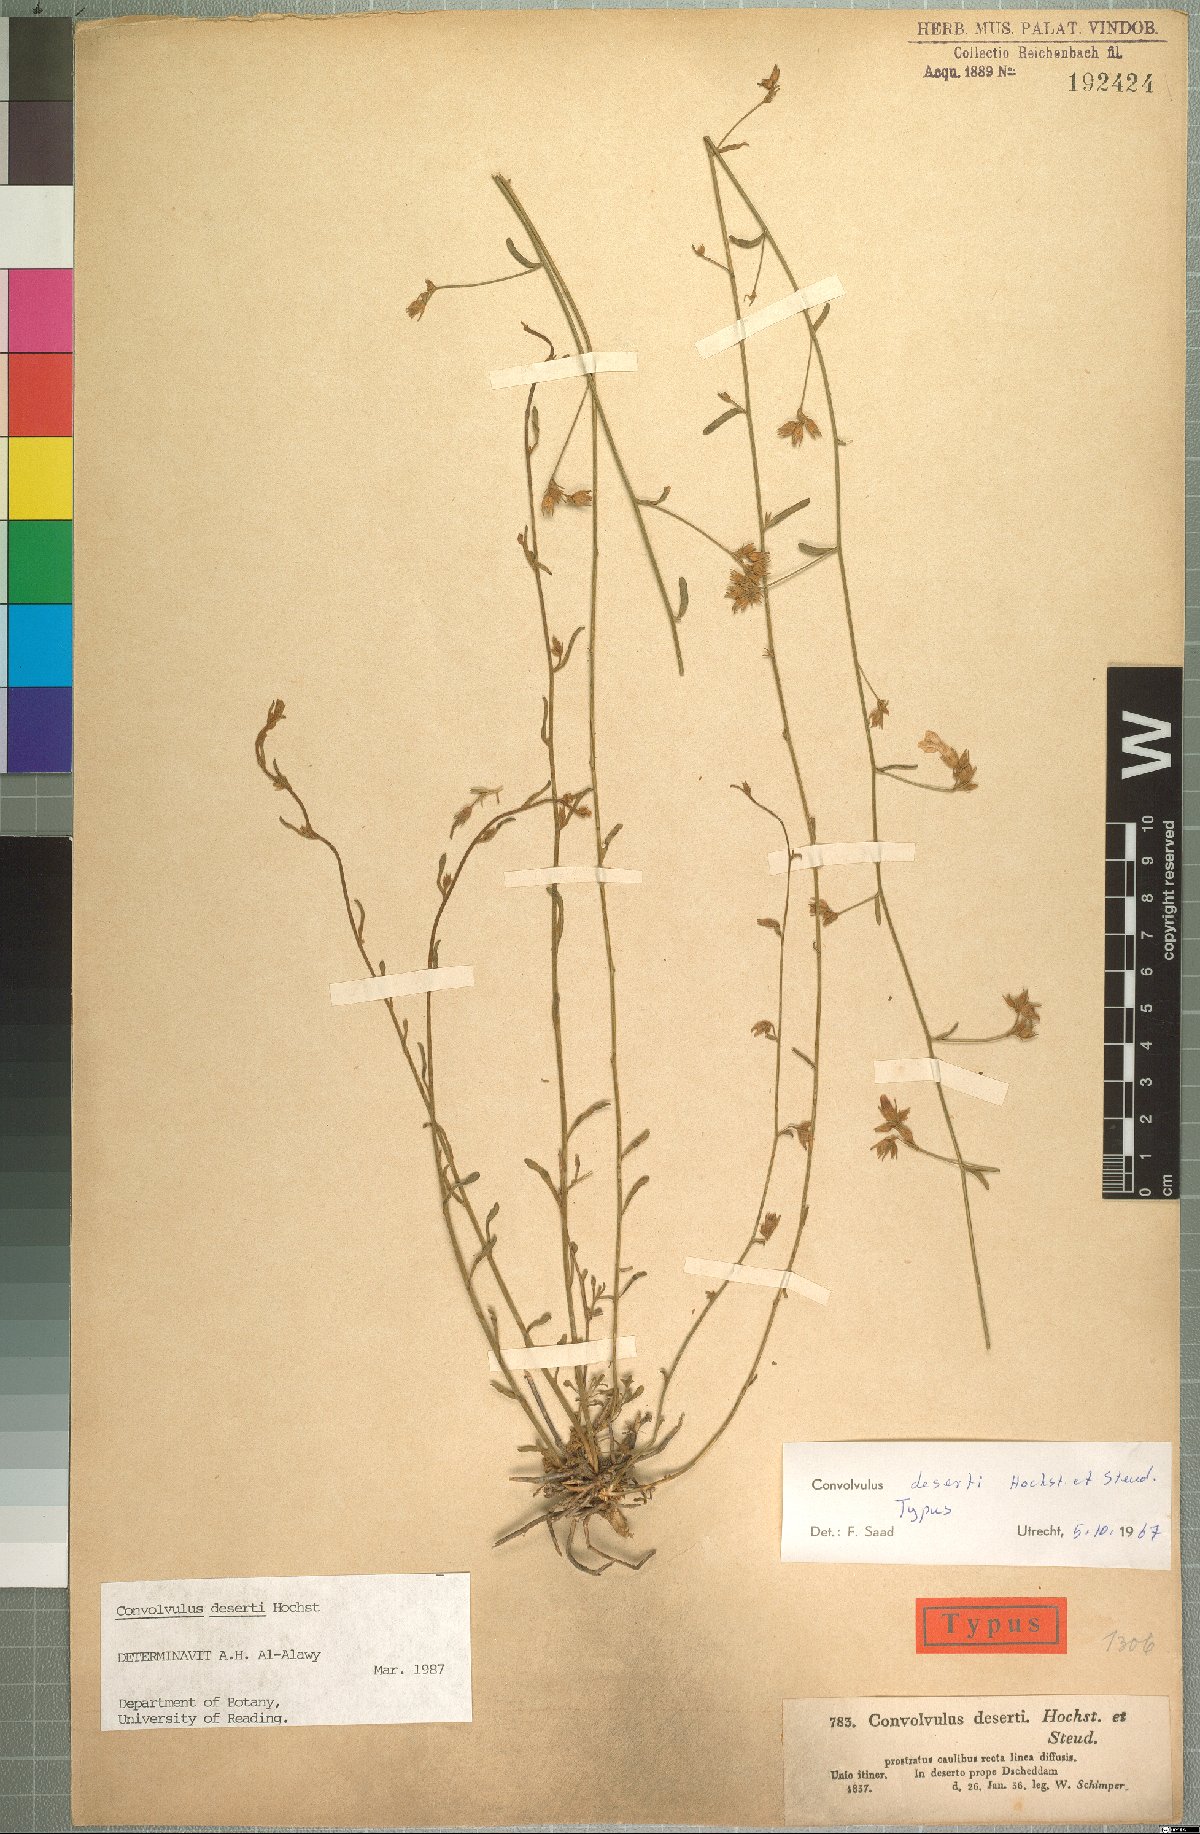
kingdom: Plantae
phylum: Tracheophyta
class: Magnoliopsida
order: Solanales
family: Convolvulaceae
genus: Convolvulus
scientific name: Convolvulus prostratus
